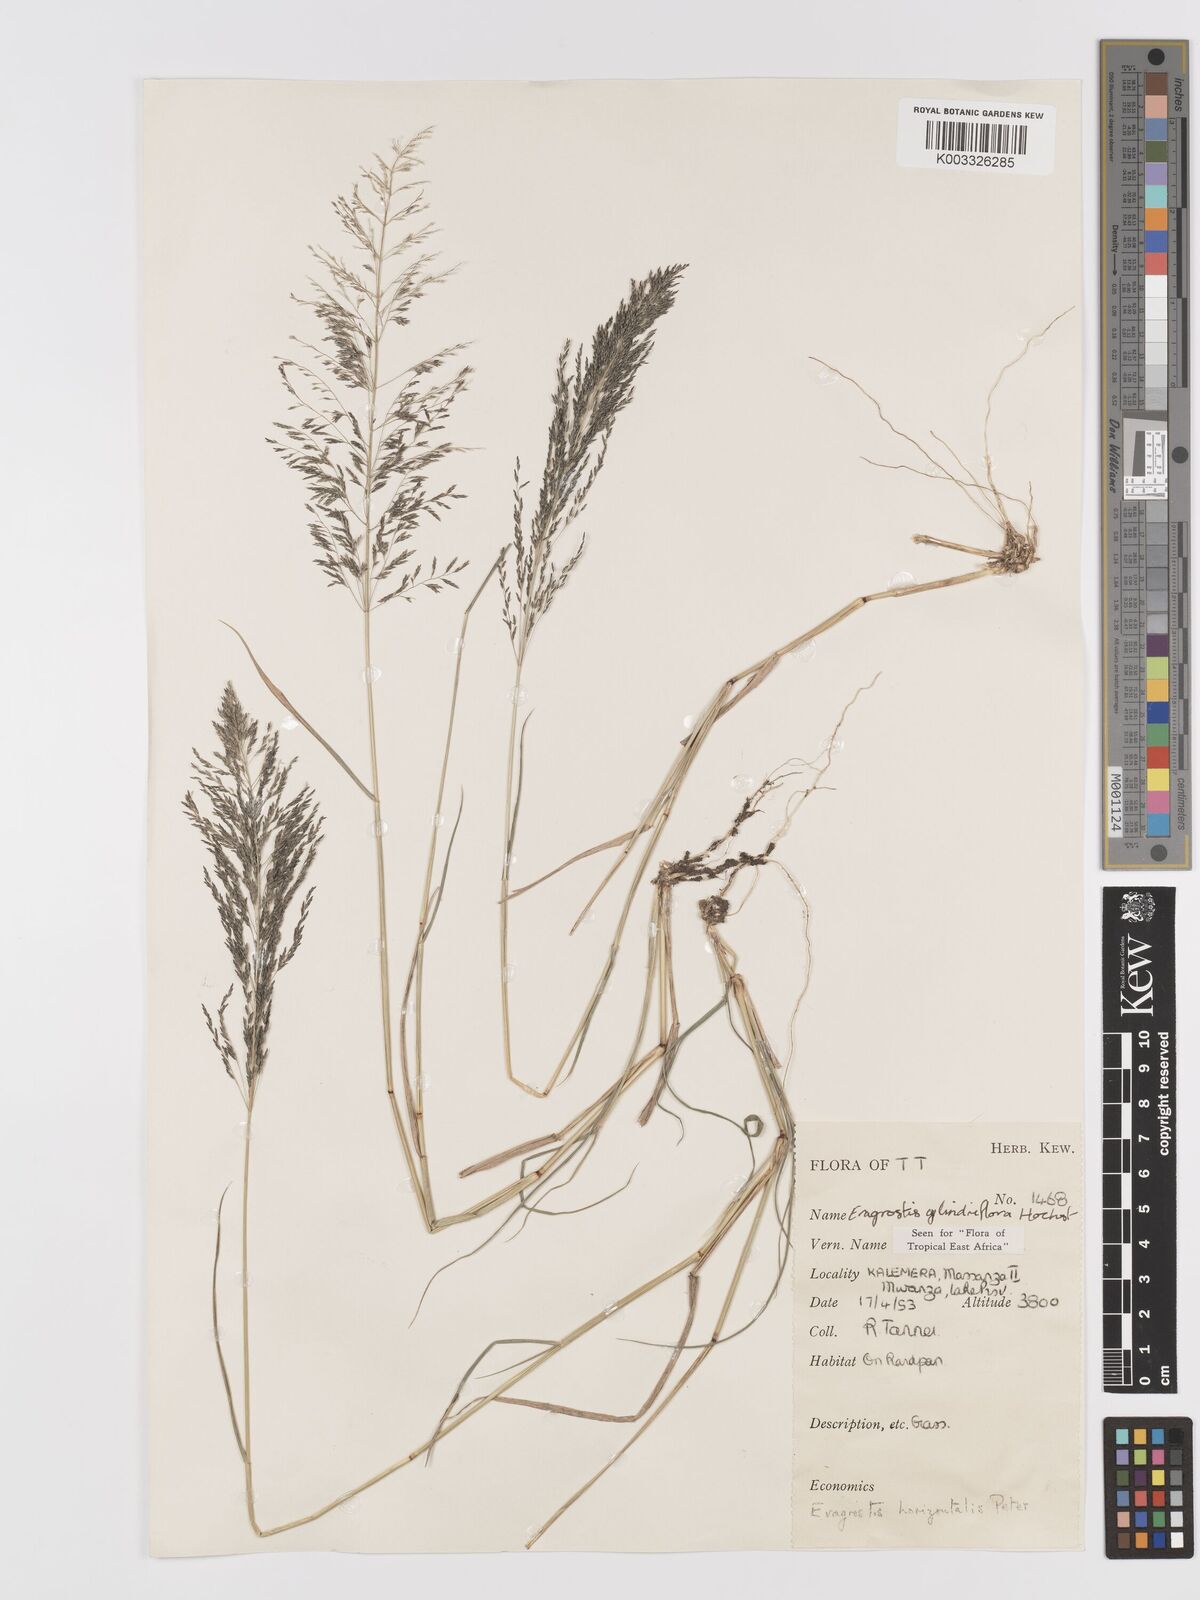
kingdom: Plantae
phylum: Tracheophyta
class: Liliopsida
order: Poales
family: Poaceae
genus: Eragrostis
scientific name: Eragrostis cylindriflora
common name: Cylinderflower lovegrass
